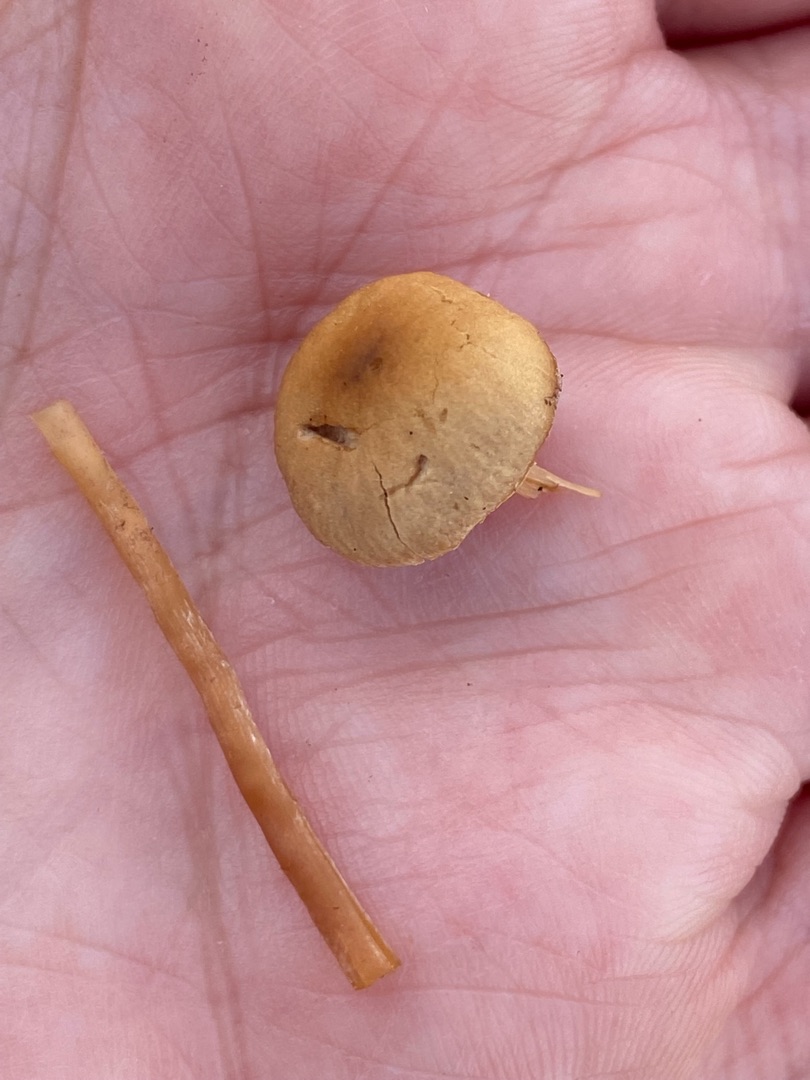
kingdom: Fungi
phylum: Basidiomycota
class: Agaricomycetes
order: Agaricales
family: Strophariaceae
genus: Hypholoma
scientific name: Hypholoma elongatum
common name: Slank svovlhat
